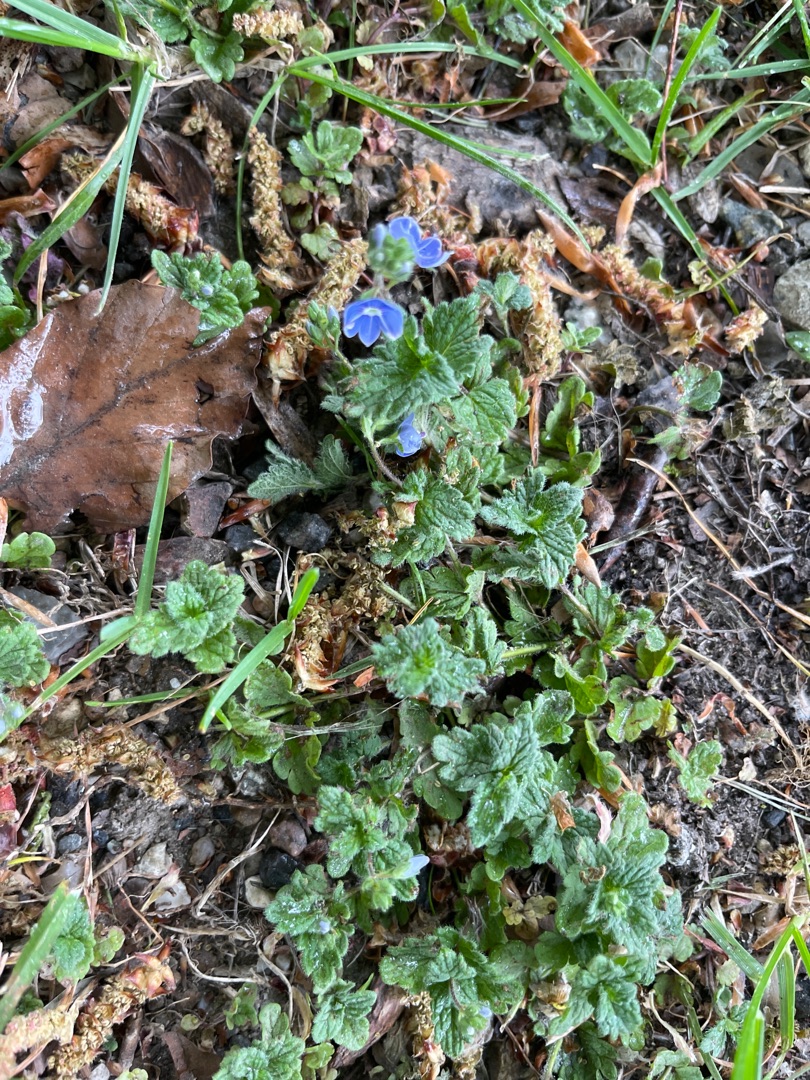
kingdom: Plantae
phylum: Tracheophyta
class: Magnoliopsida
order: Lamiales
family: Plantaginaceae
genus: Veronica
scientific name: Veronica chamaedrys
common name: Tveskægget ærenpris
